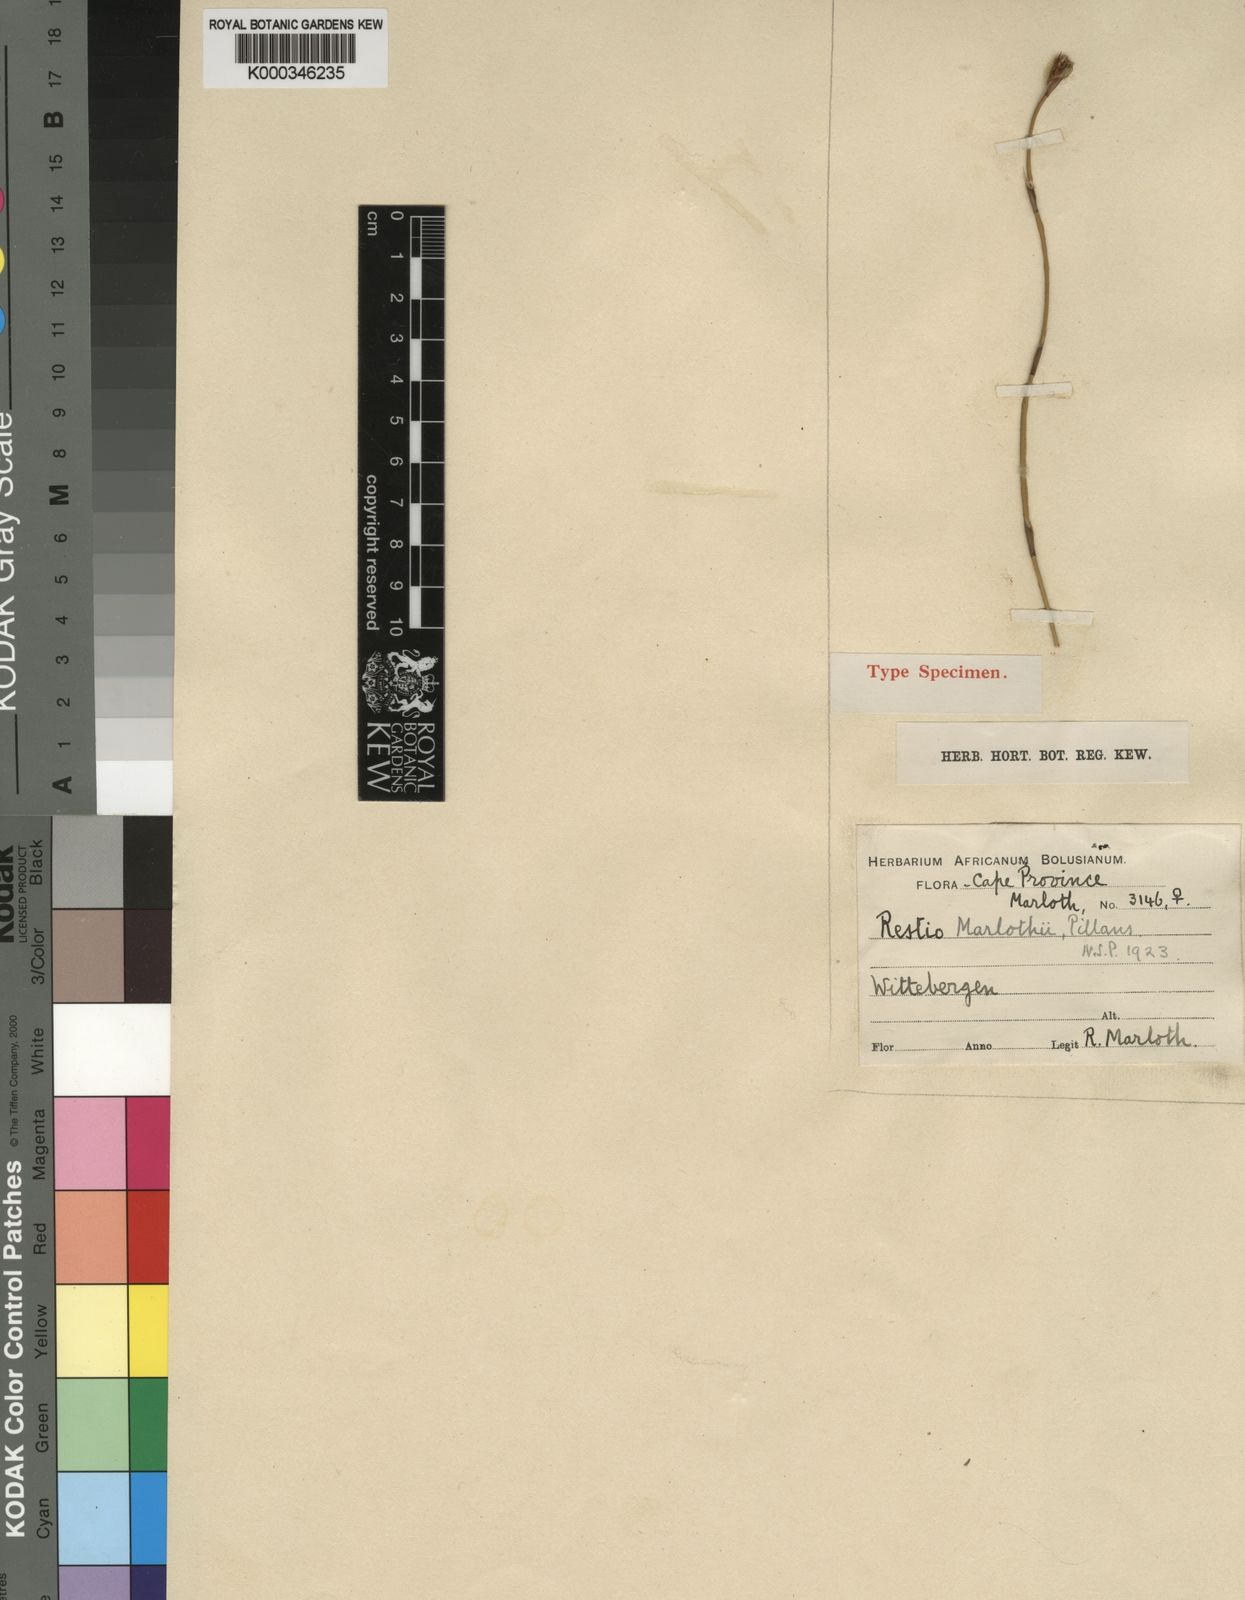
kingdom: Plantae
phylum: Tracheophyta
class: Liliopsida
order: Poales
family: Restionaceae
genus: Restio
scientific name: Restio marlothii
